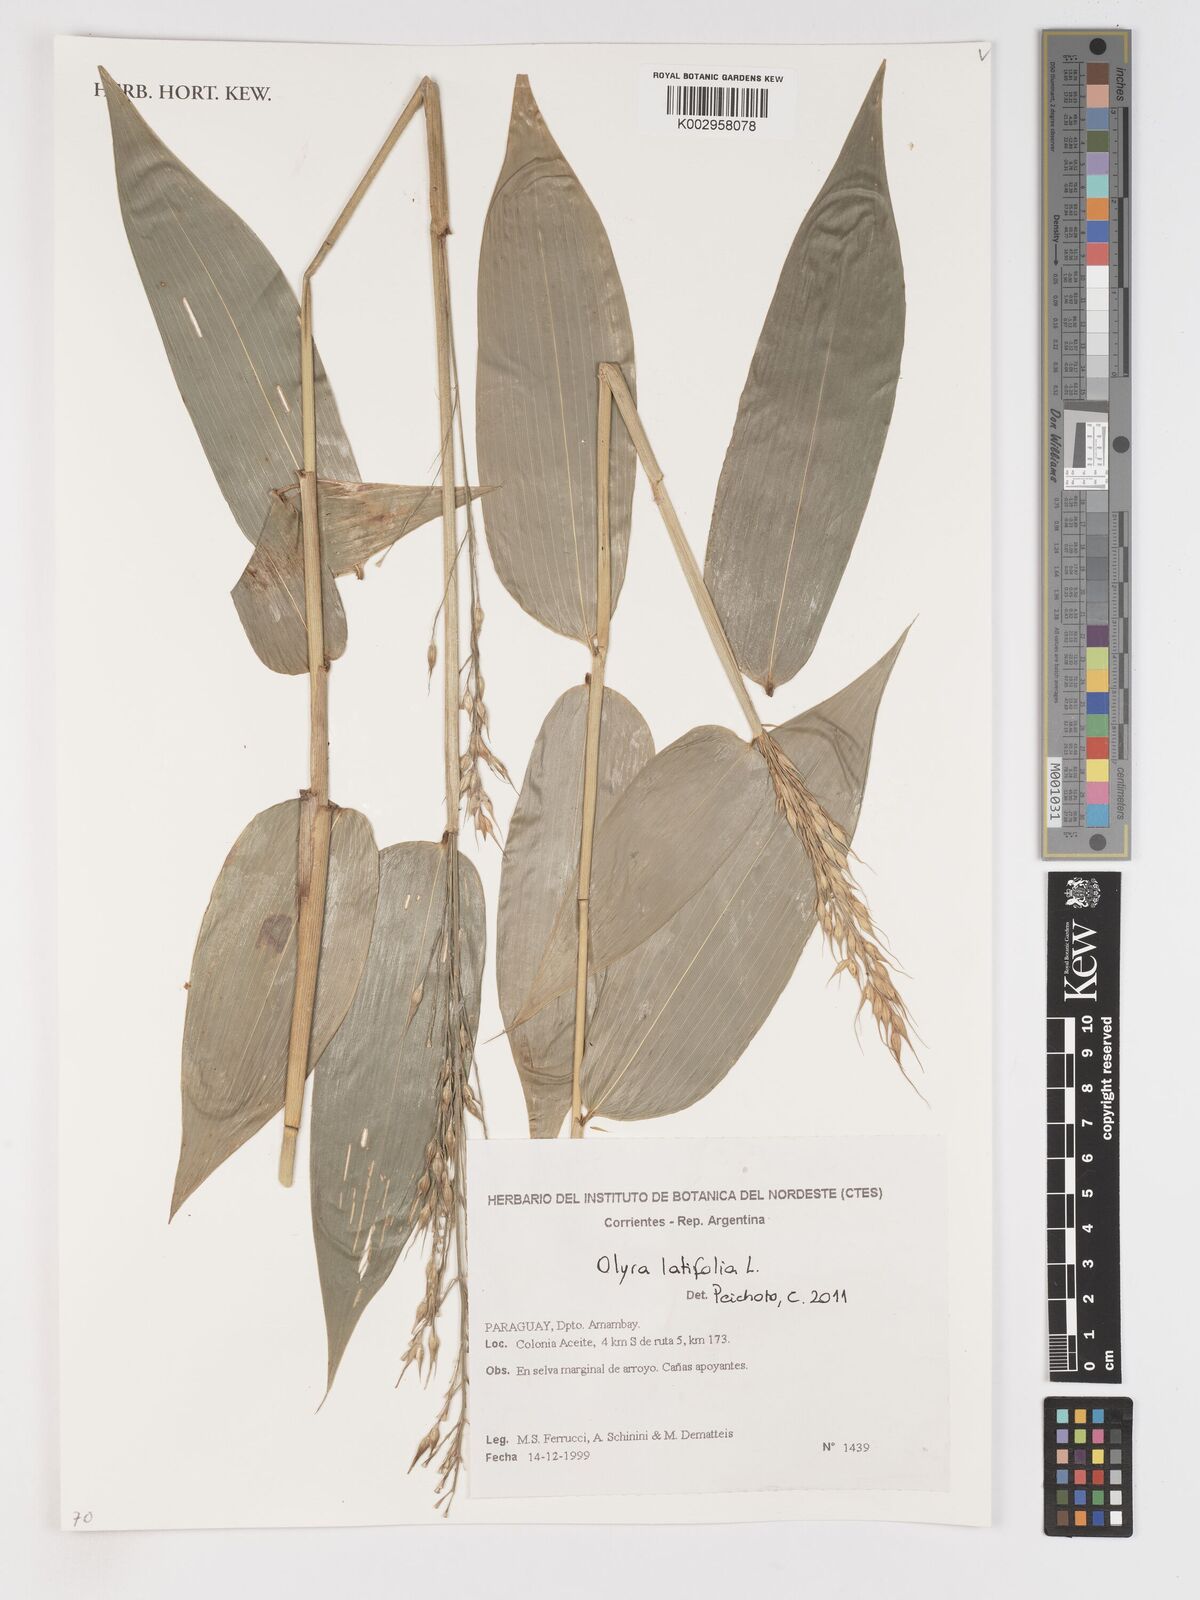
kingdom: Plantae
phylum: Tracheophyta
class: Liliopsida
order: Poales
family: Poaceae
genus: Olyra
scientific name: Olyra latifolia
